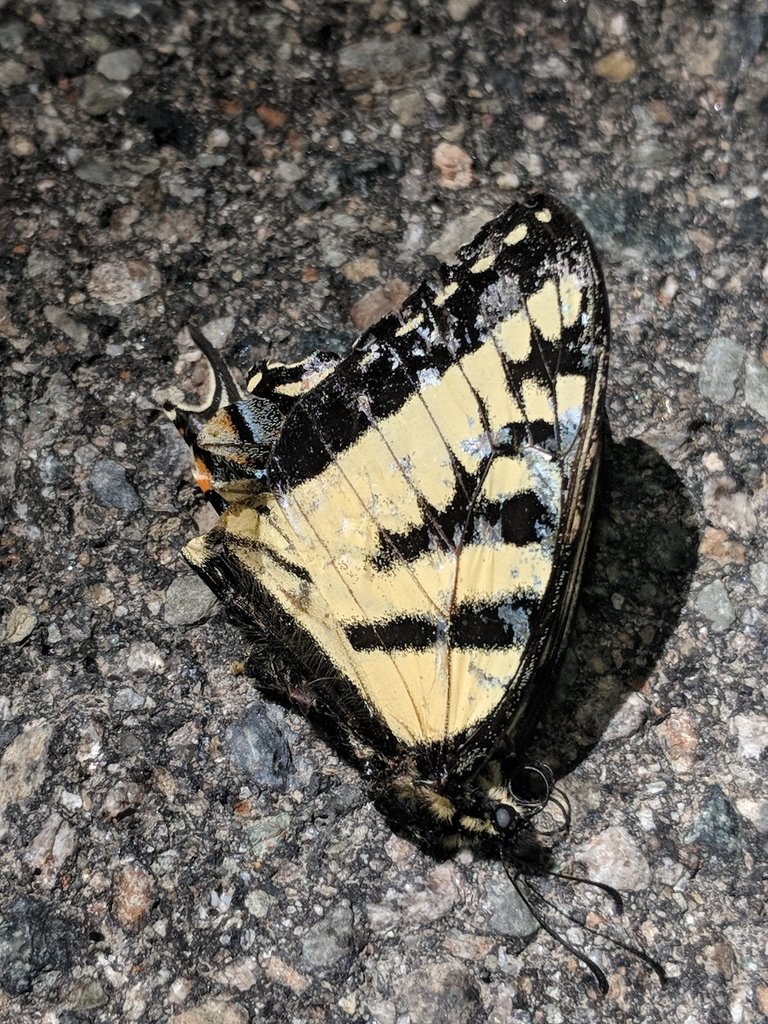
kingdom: Animalia
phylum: Arthropoda
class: Insecta
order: Lepidoptera
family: Papilionidae
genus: Pterourus
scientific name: Pterourus canadensis
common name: Canadian Tiger Swallowtail
